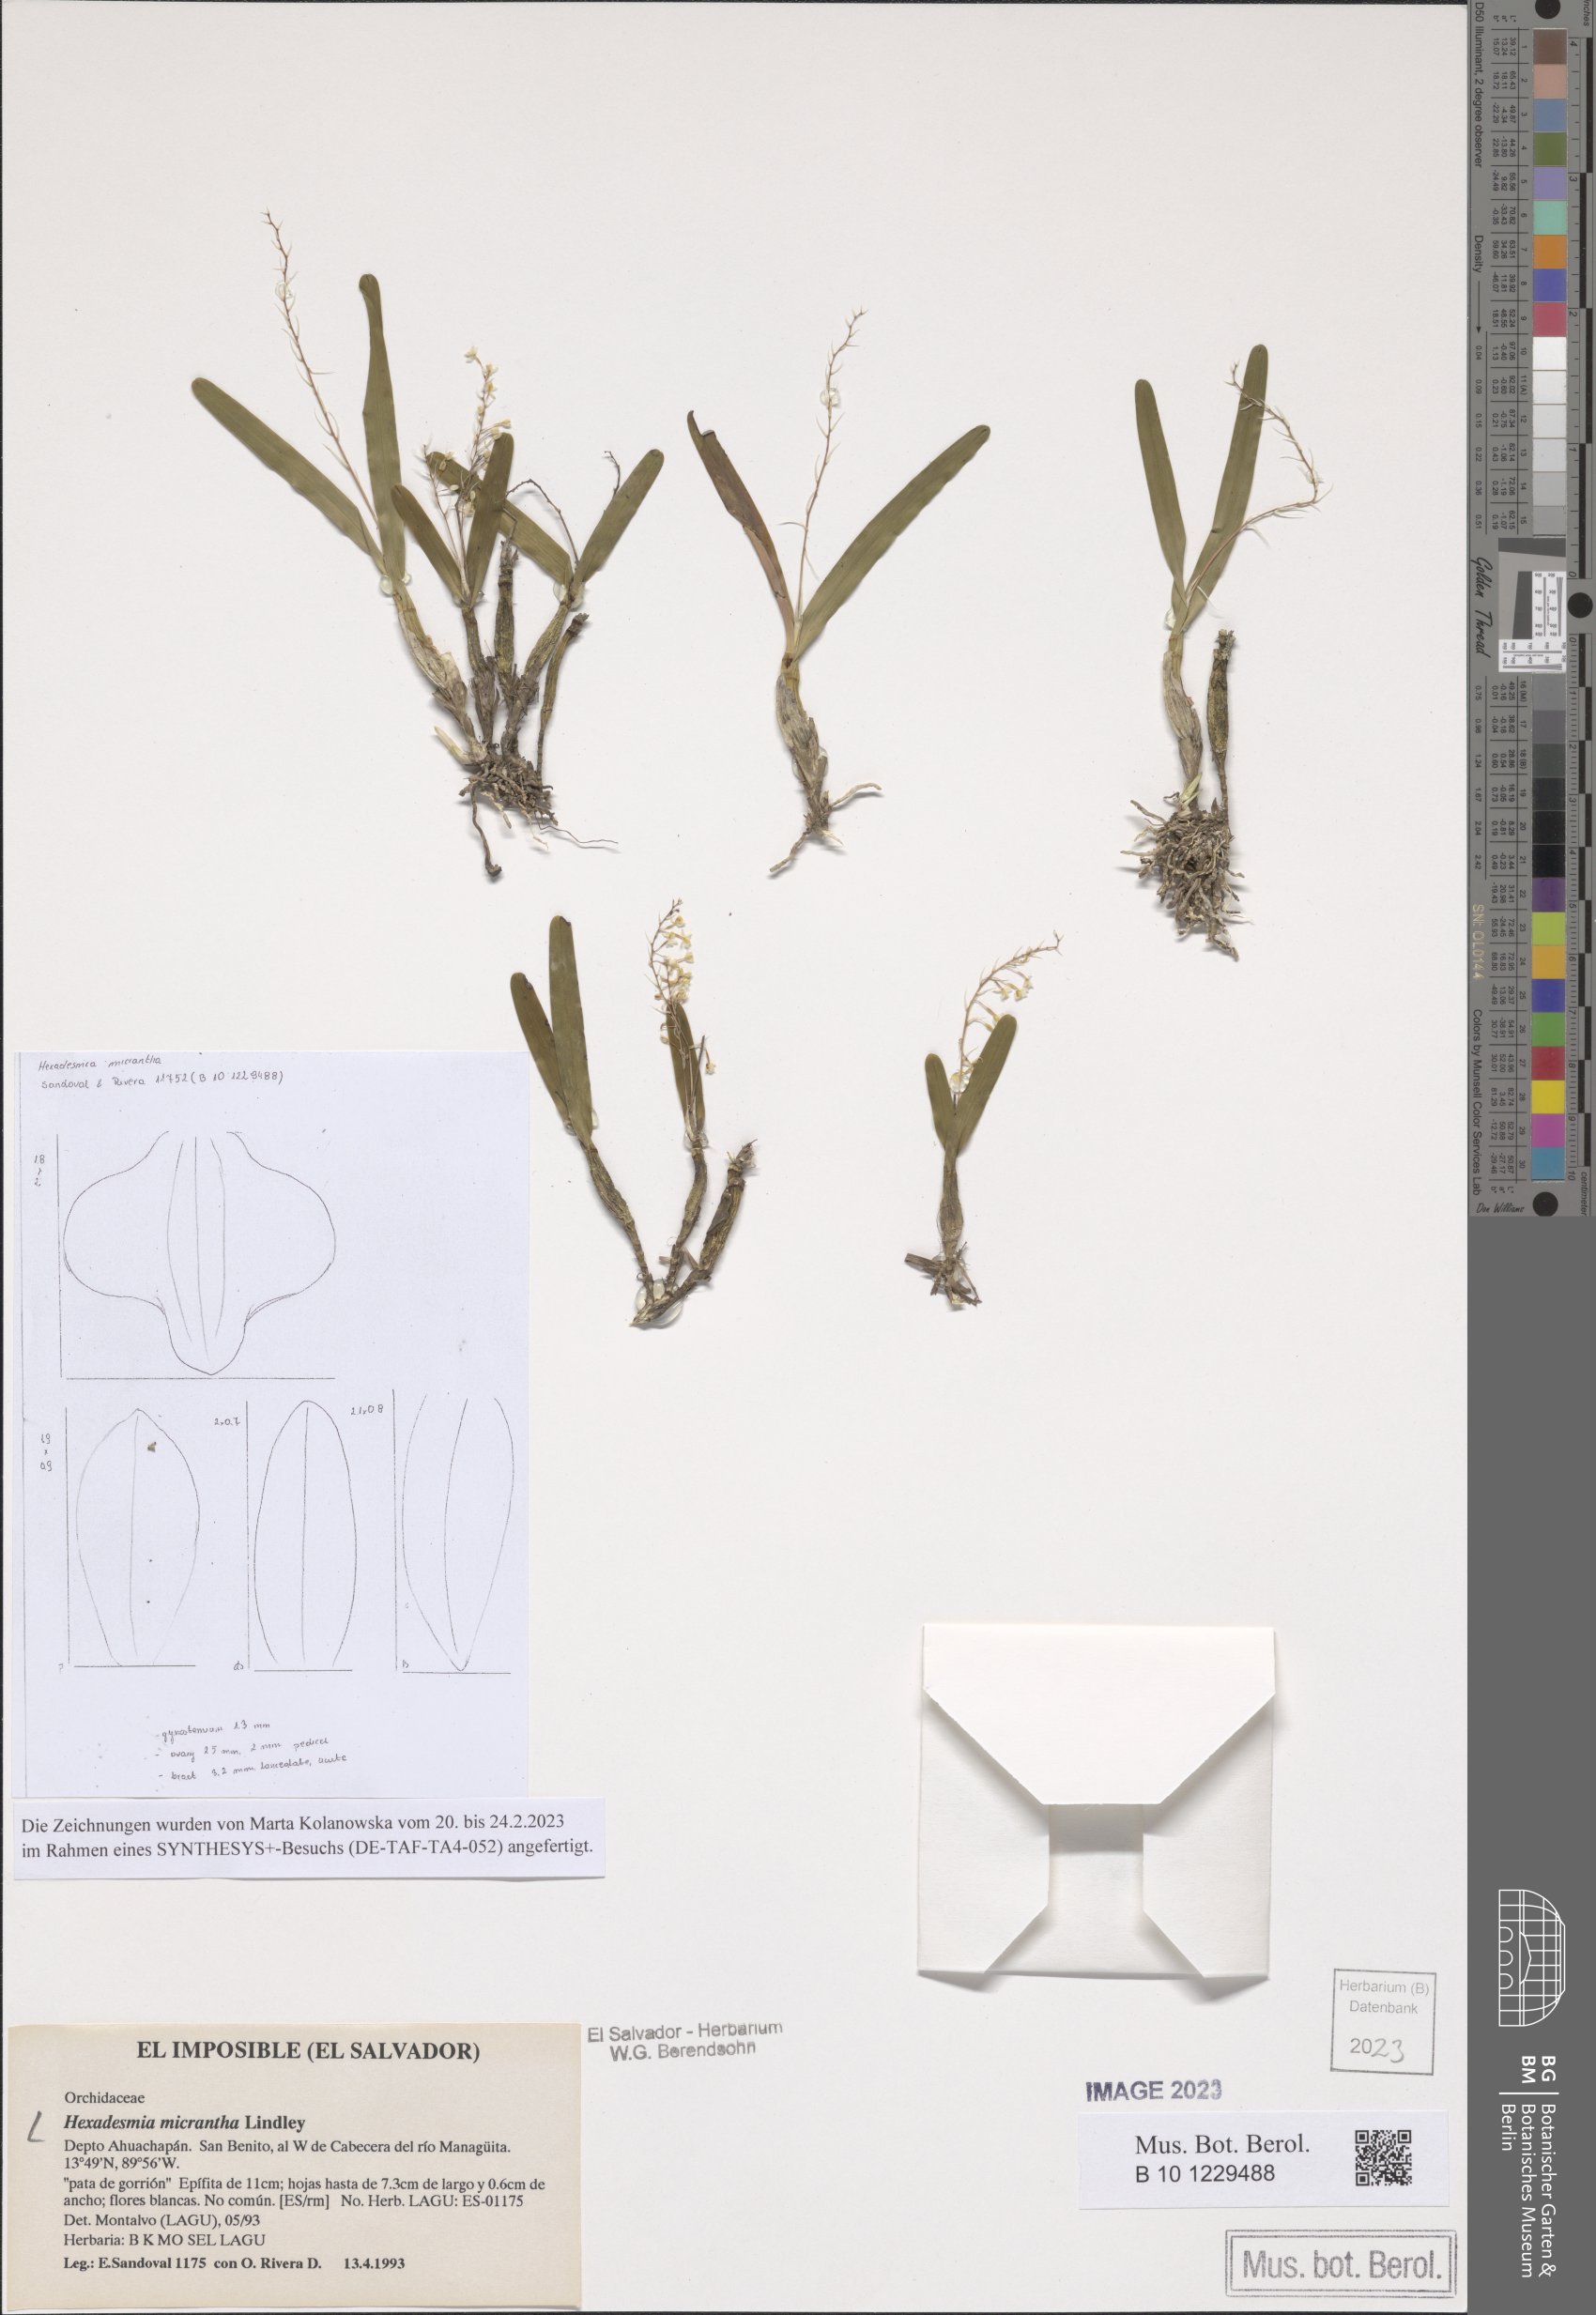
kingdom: Plantae
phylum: Tracheophyta
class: Liliopsida
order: Asparagales
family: Orchidaceae
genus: Scaphyglottis
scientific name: Scaphyglottis micrantha
